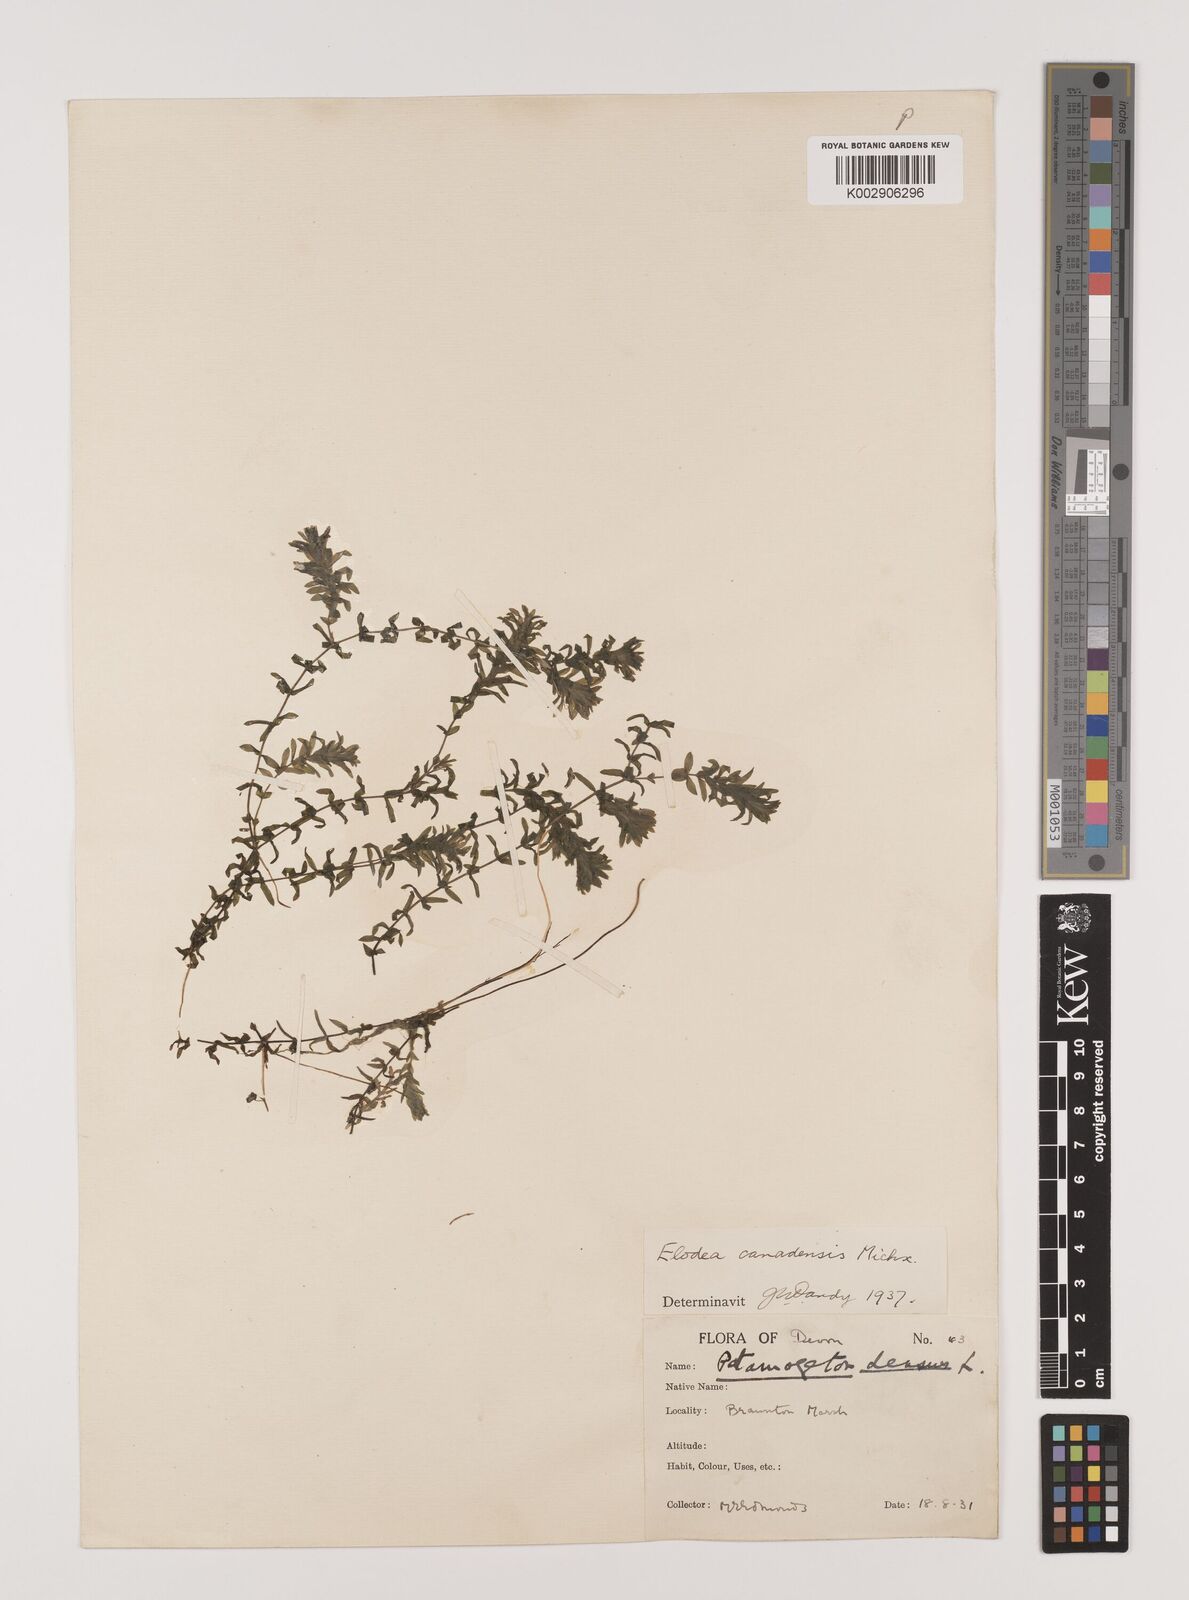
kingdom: Plantae
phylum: Tracheophyta
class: Liliopsida
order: Alismatales
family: Hydrocharitaceae
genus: Elodea
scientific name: Elodea canadensis
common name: Canadian waterweed
